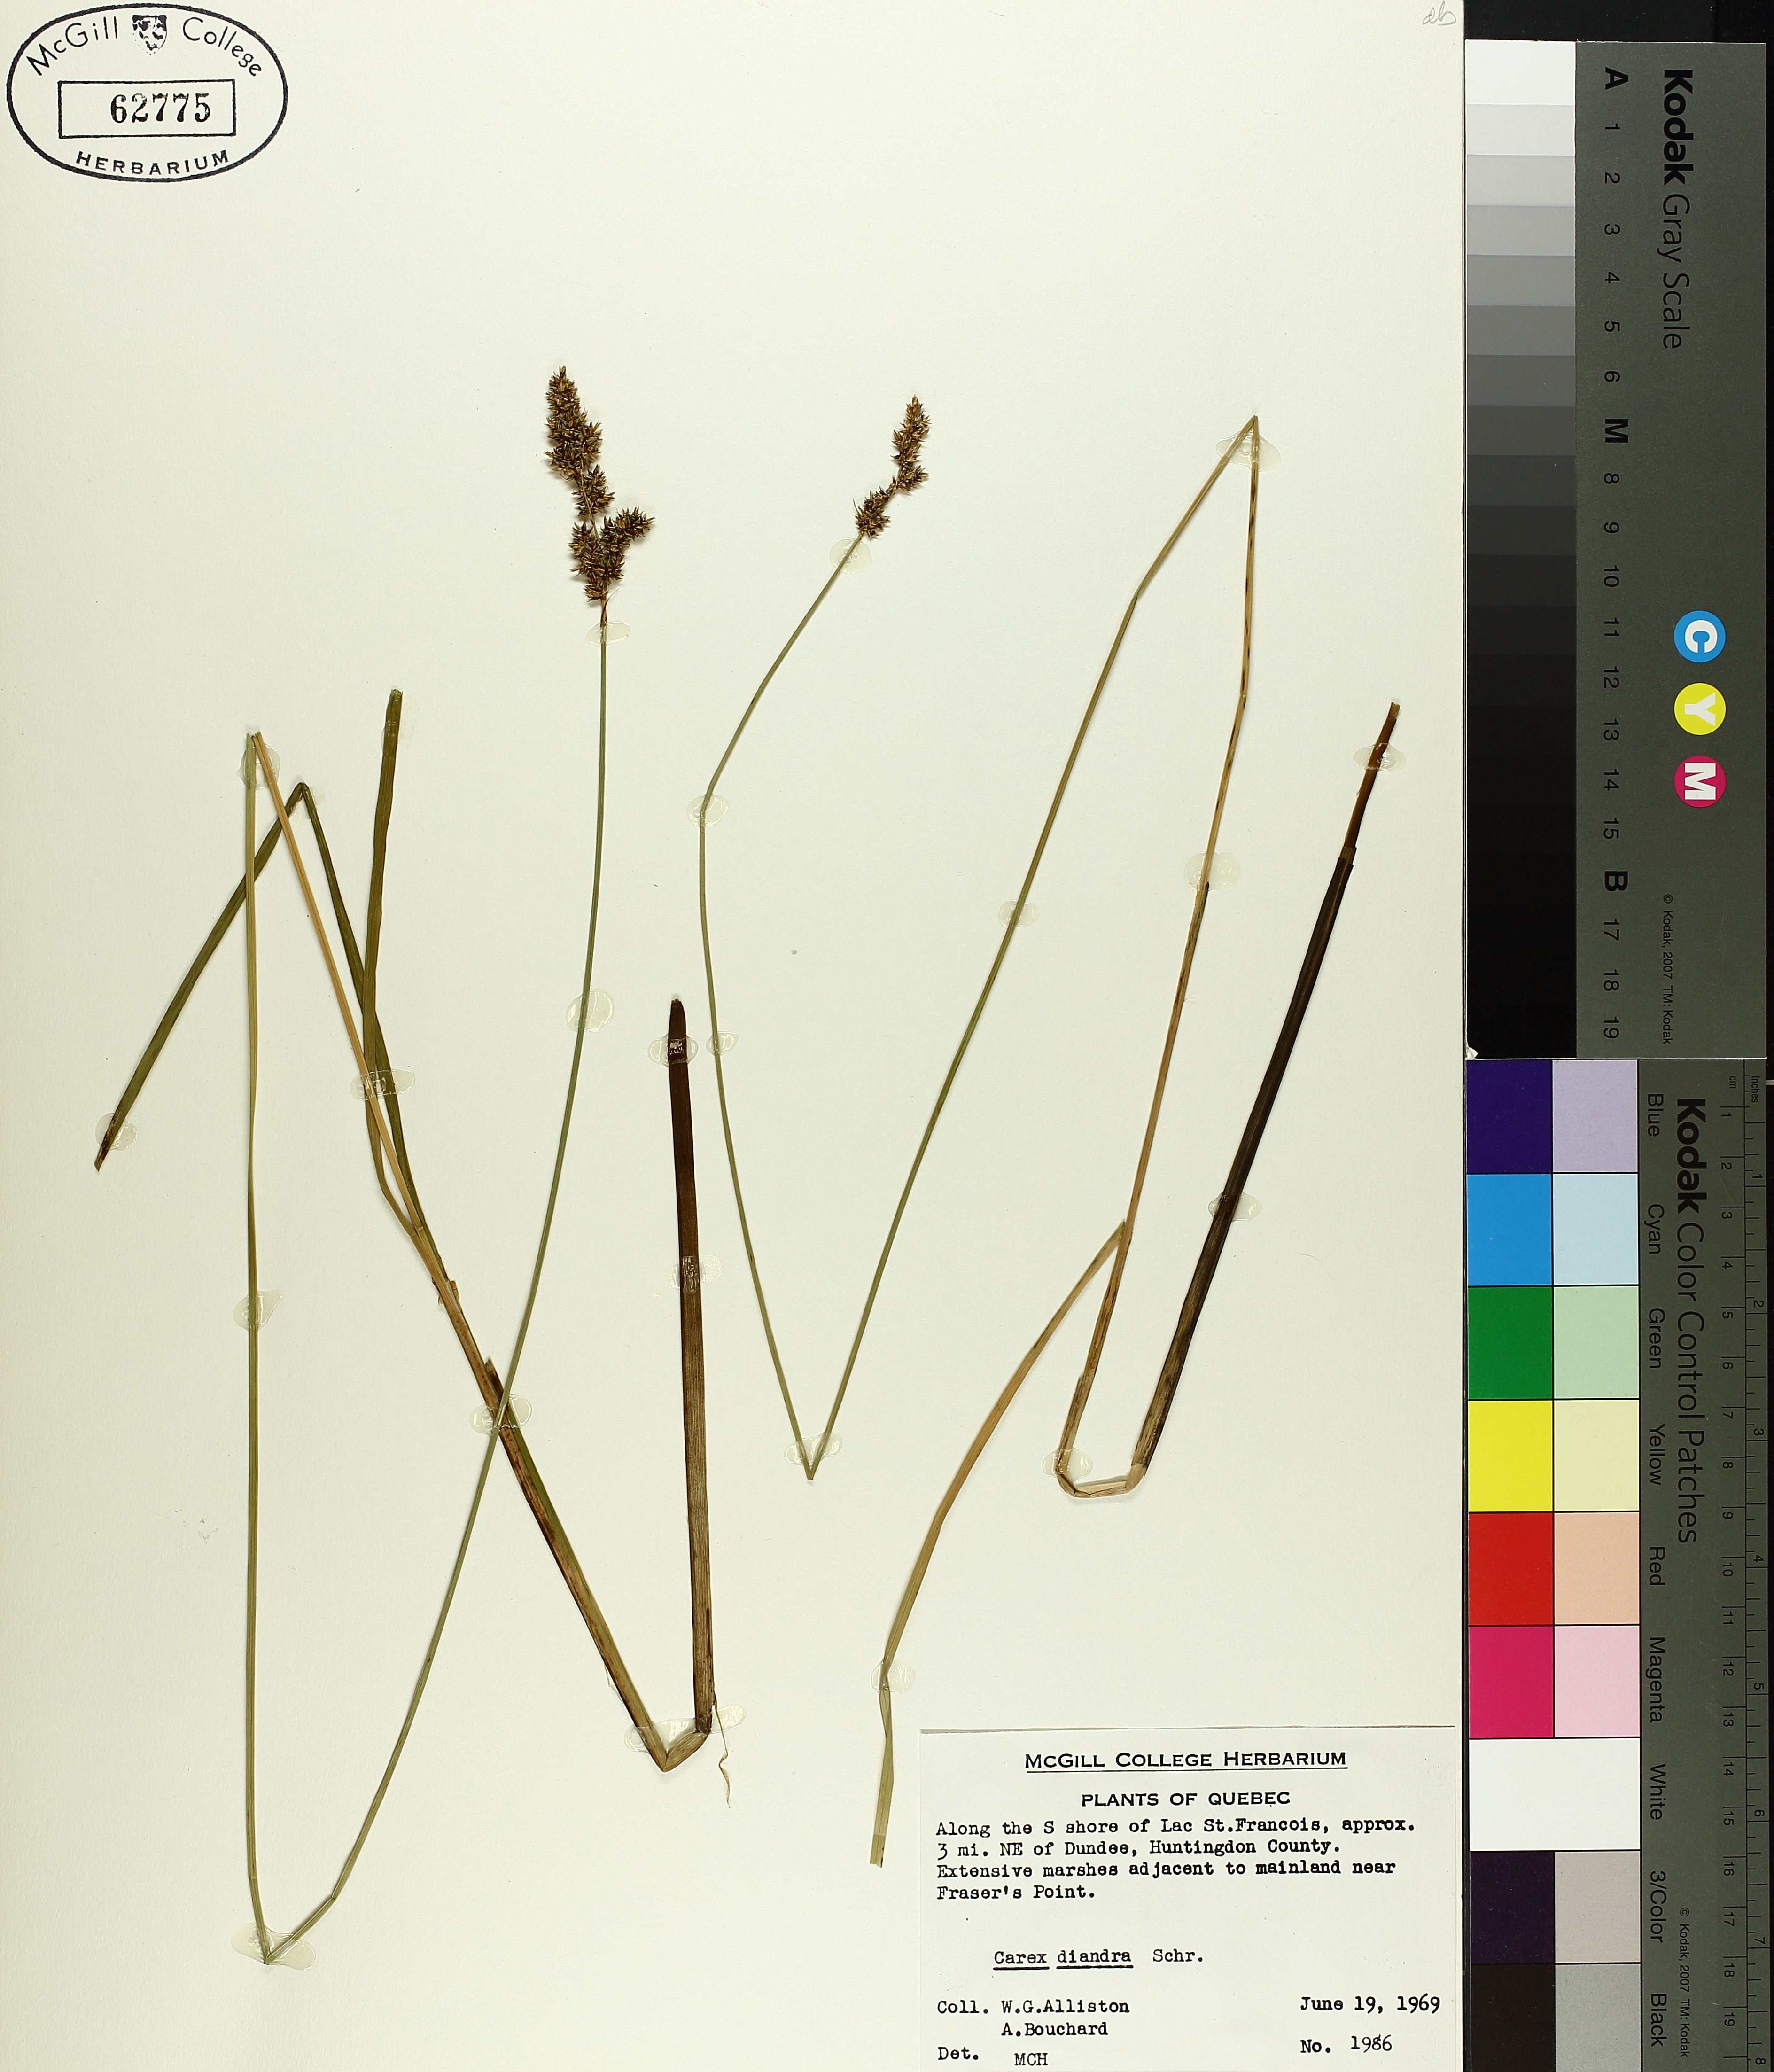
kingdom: Plantae
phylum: Tracheophyta
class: Liliopsida
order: Poales
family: Cyperaceae
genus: Carex
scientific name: Carex diandra
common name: Lesser tussock-sedge
